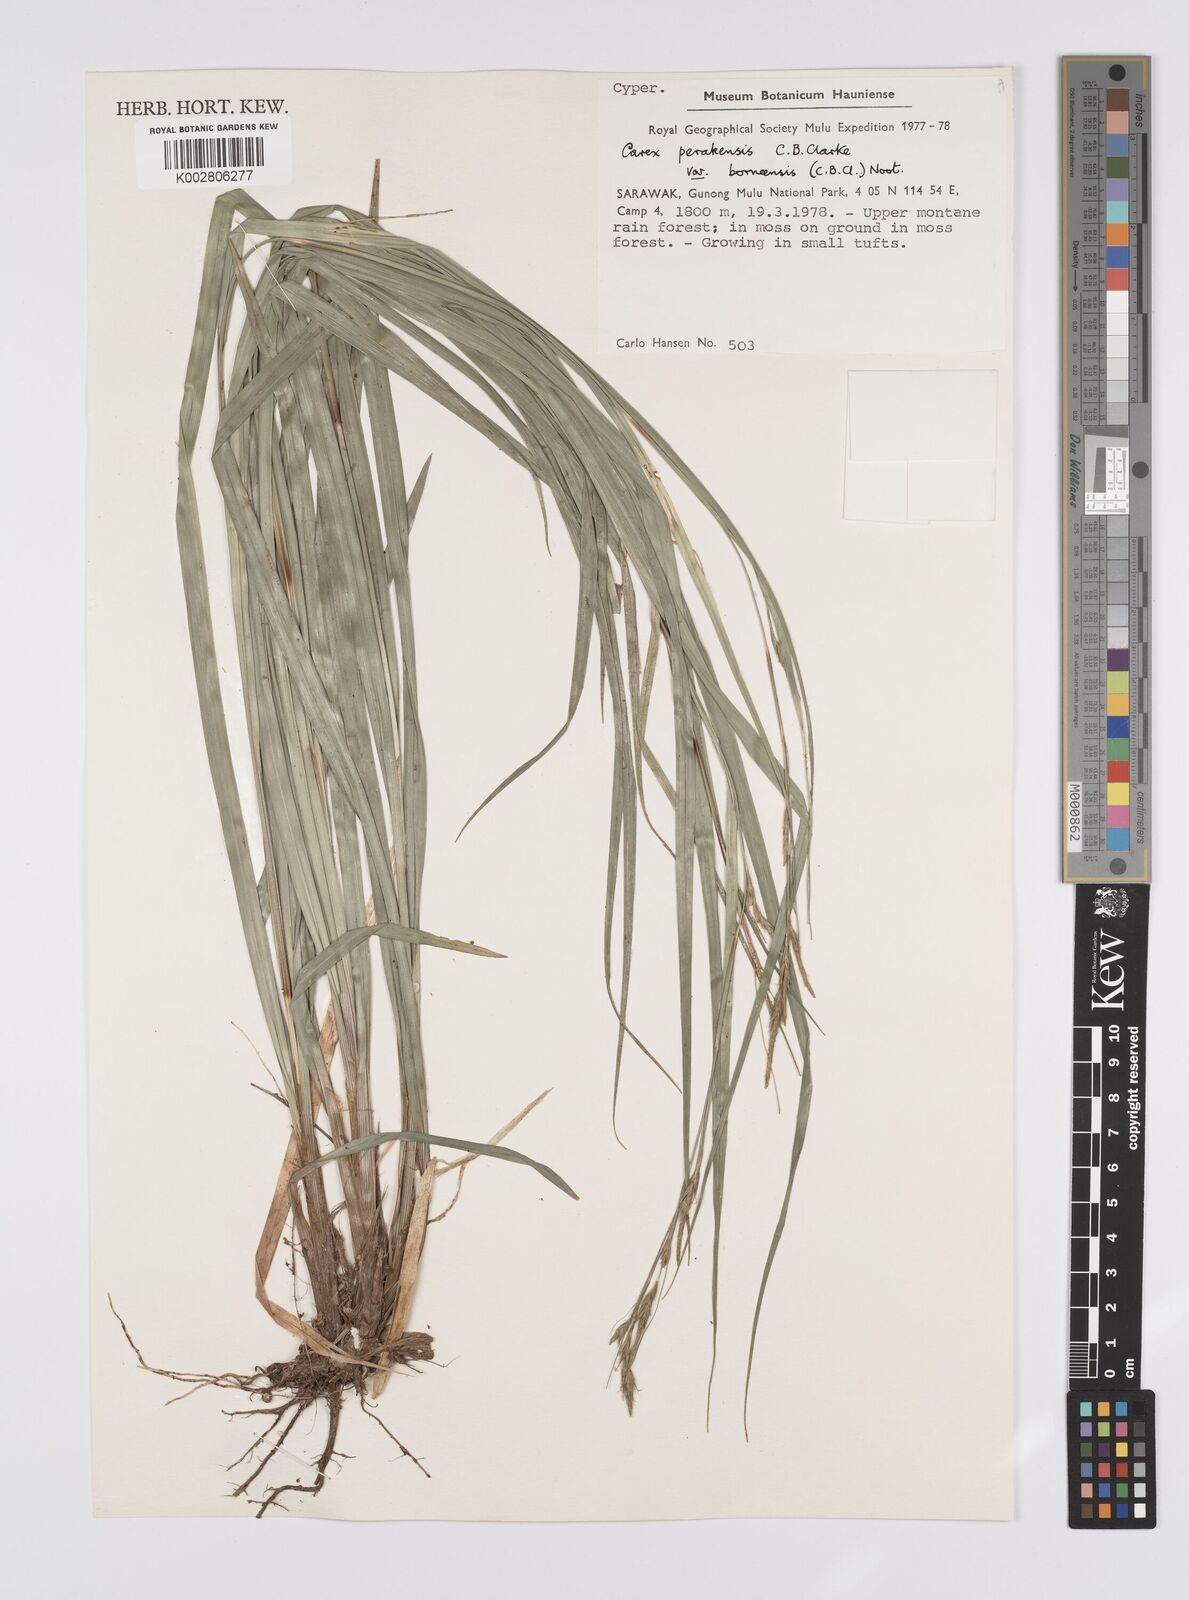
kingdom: Plantae
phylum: Tracheophyta
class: Liliopsida
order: Poales
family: Cyperaceae
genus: Carex
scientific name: Carex perakensis
